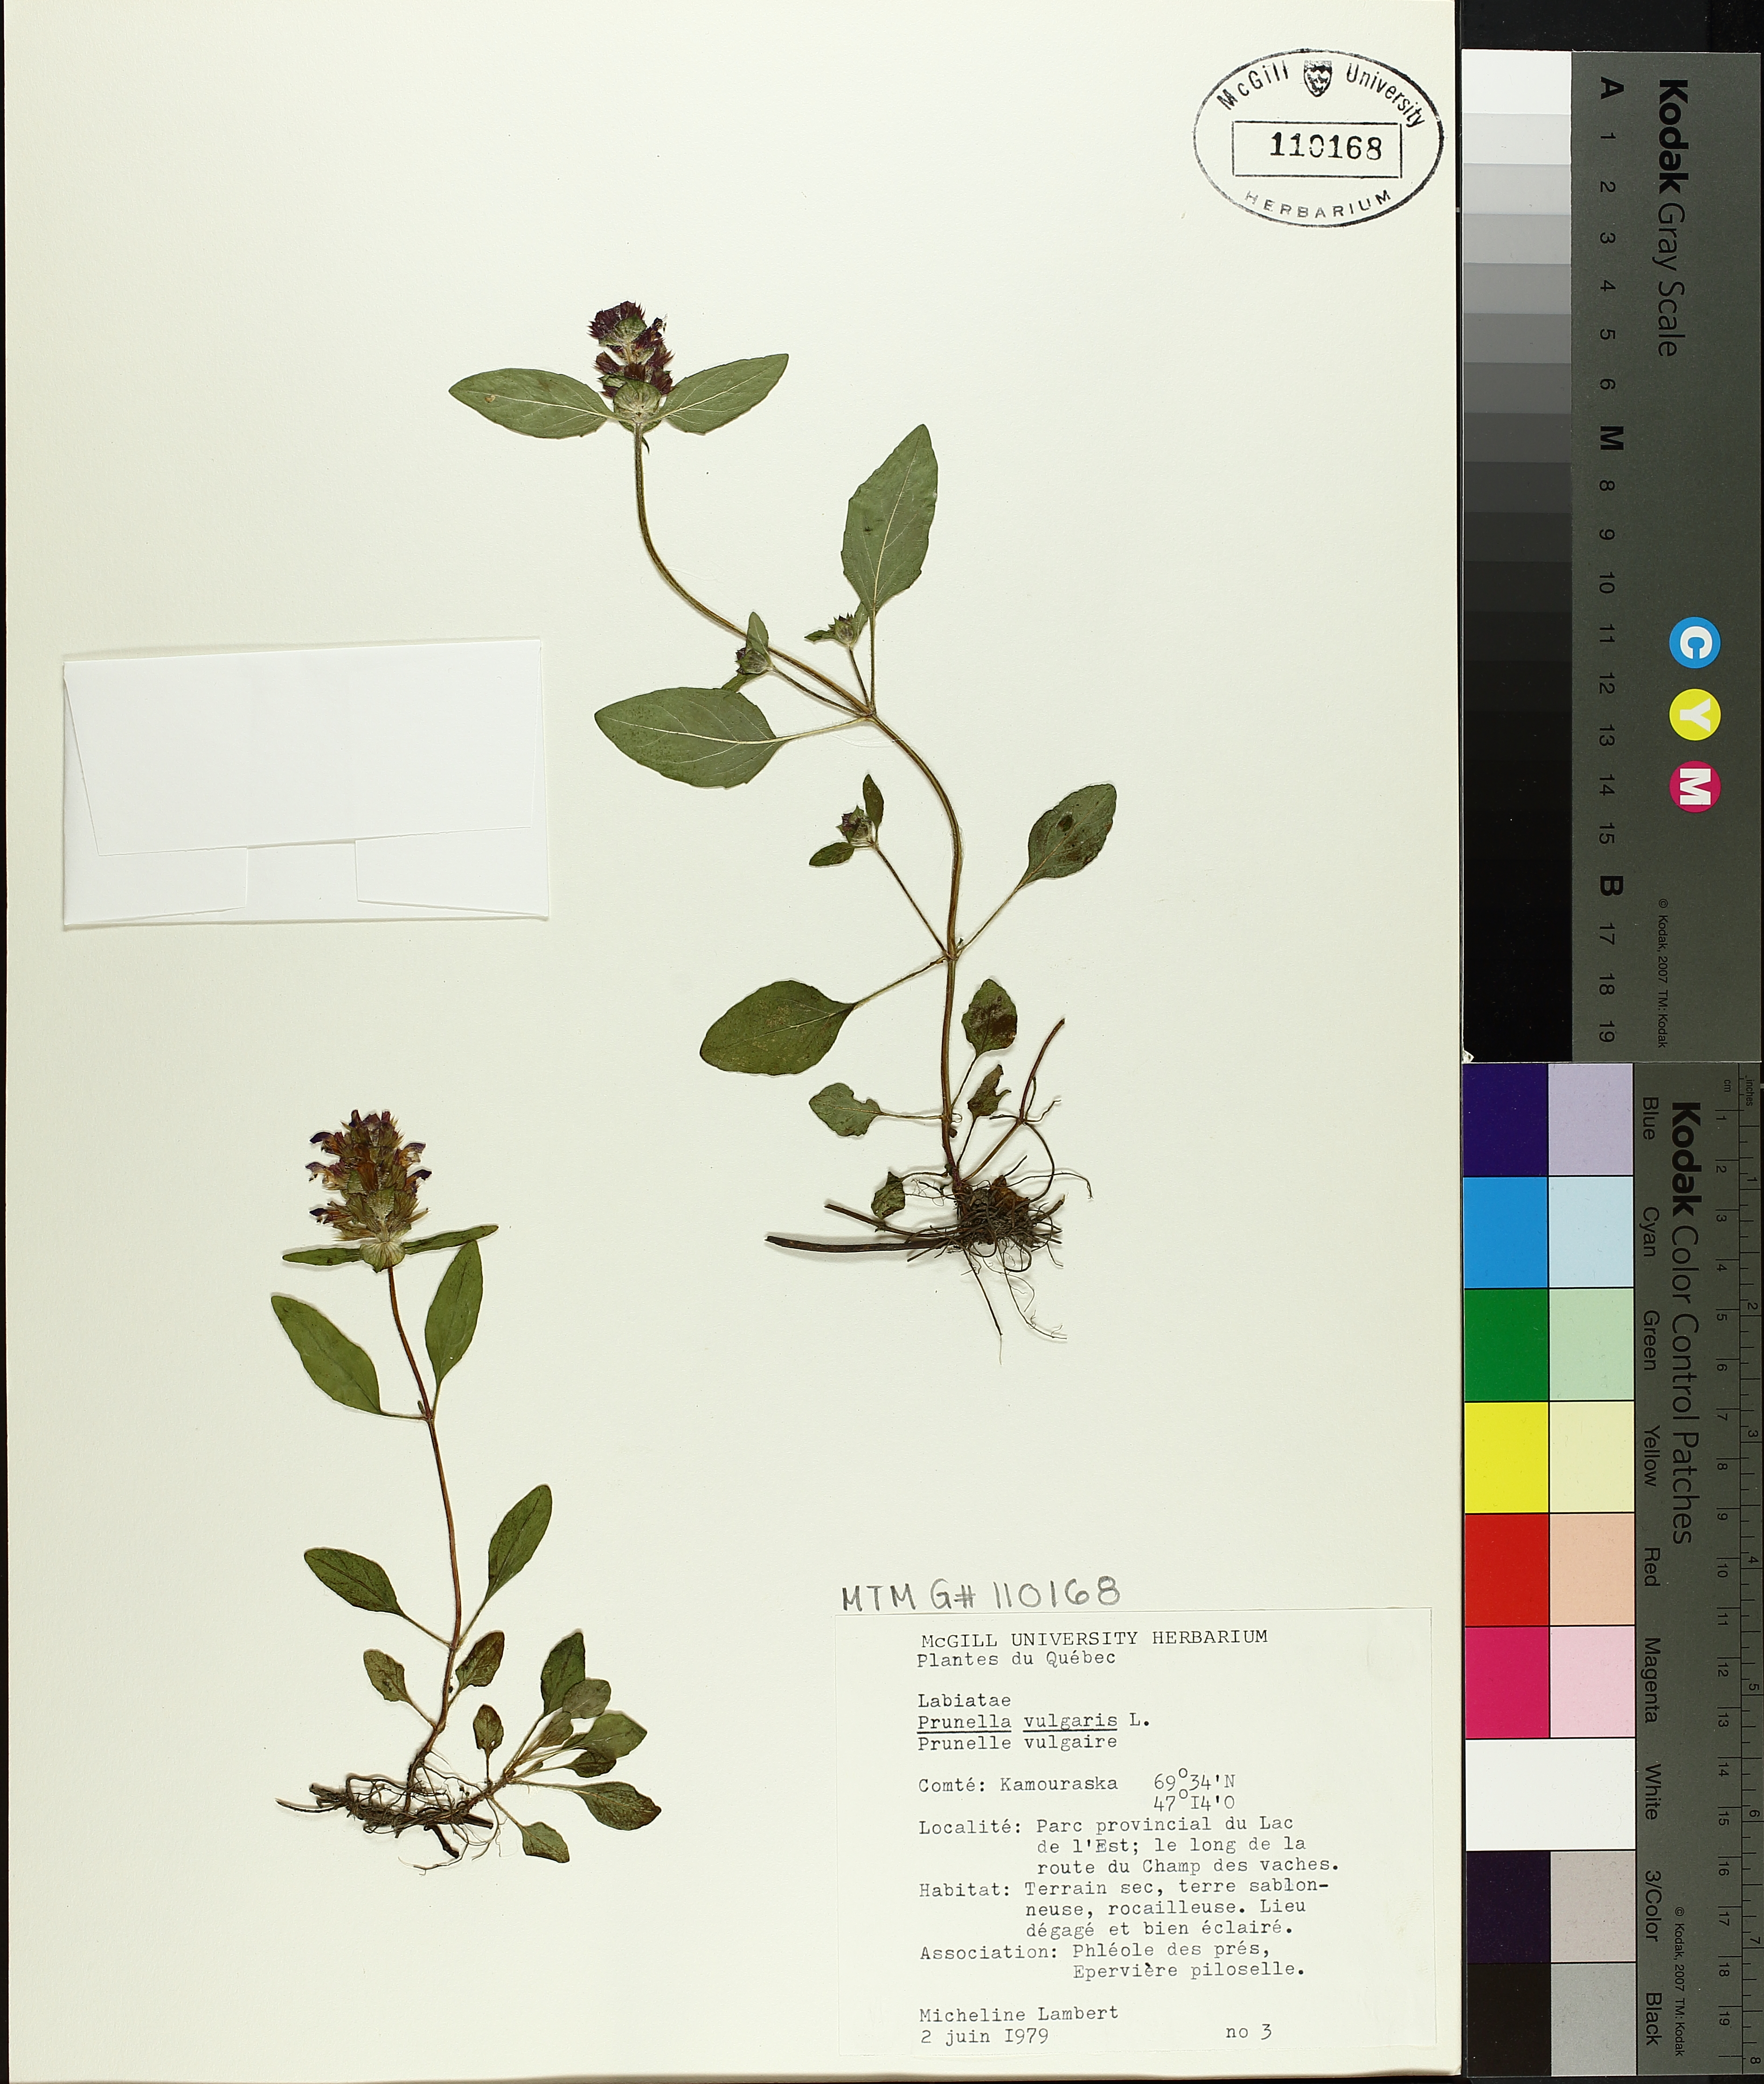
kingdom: Plantae
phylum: Tracheophyta
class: Magnoliopsida
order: Lamiales
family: Lamiaceae
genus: Prunella
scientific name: Prunella vulgaris
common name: Heal-all
